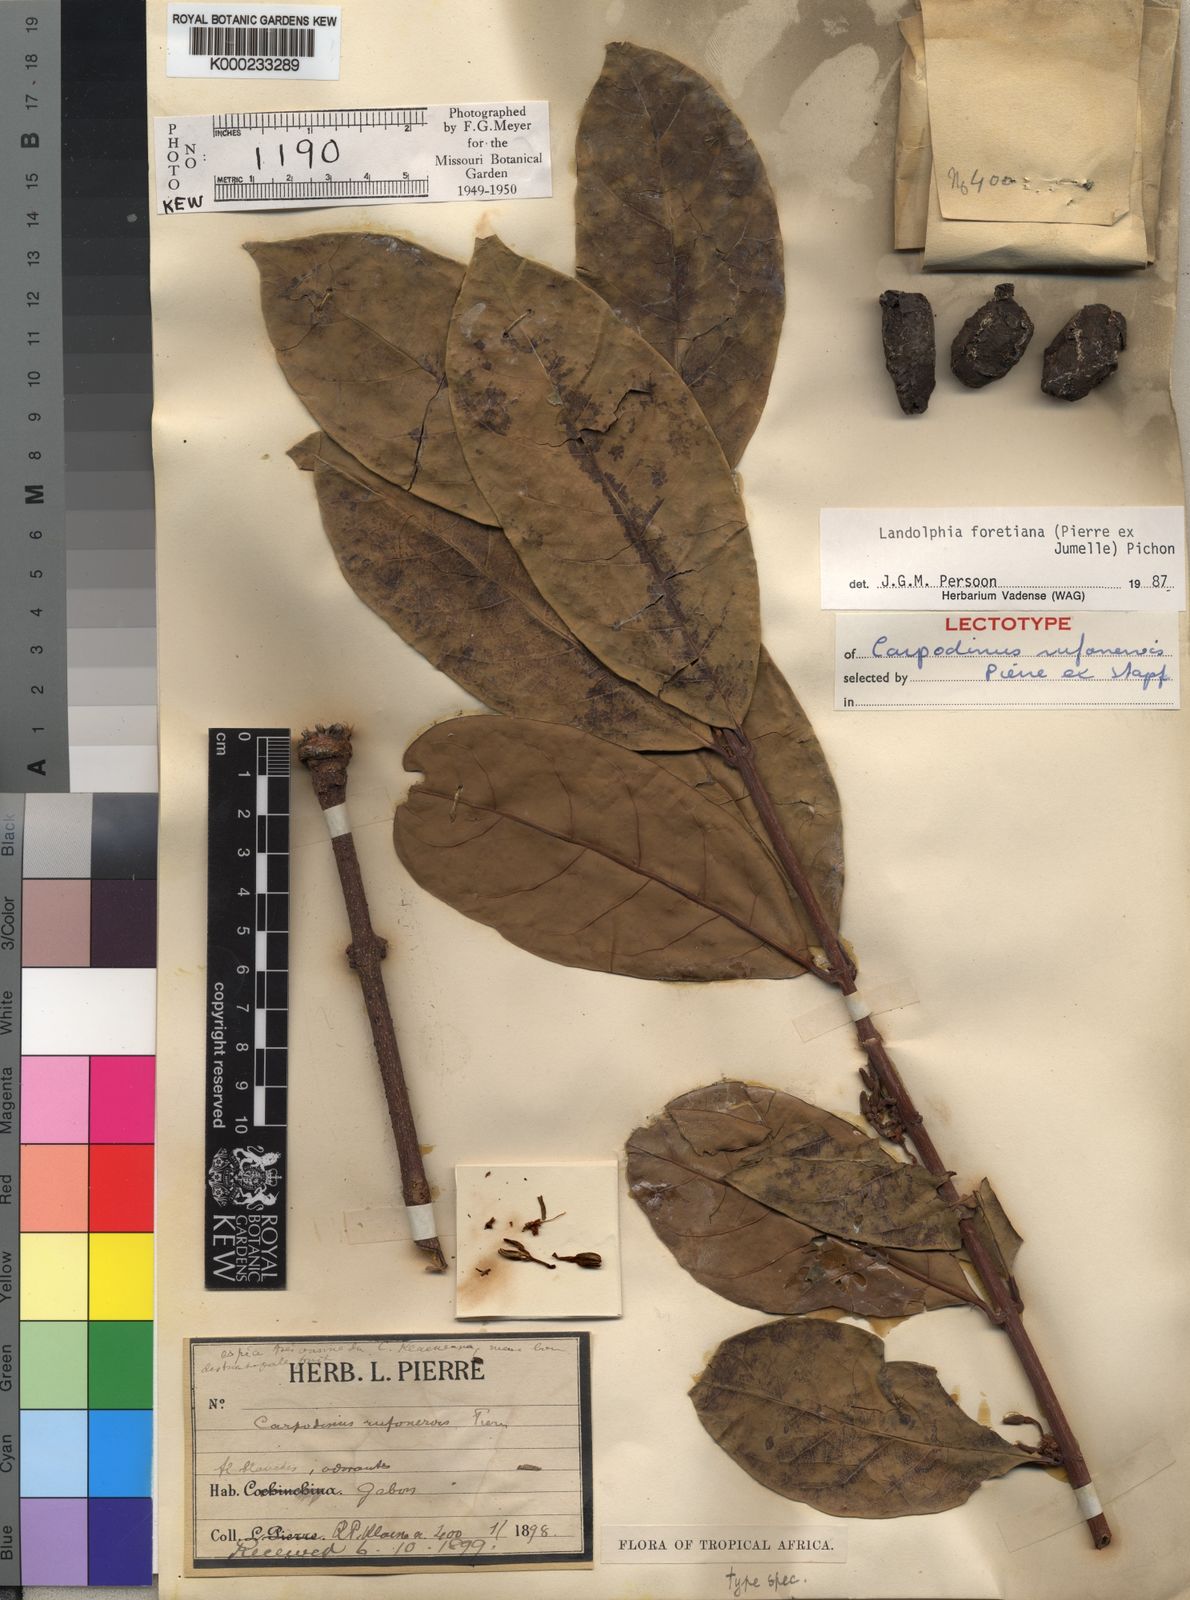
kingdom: Plantae
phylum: Tracheophyta
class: Magnoliopsida
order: Gentianales
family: Apocynaceae
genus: Landolphia
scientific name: Landolphia foretiana
